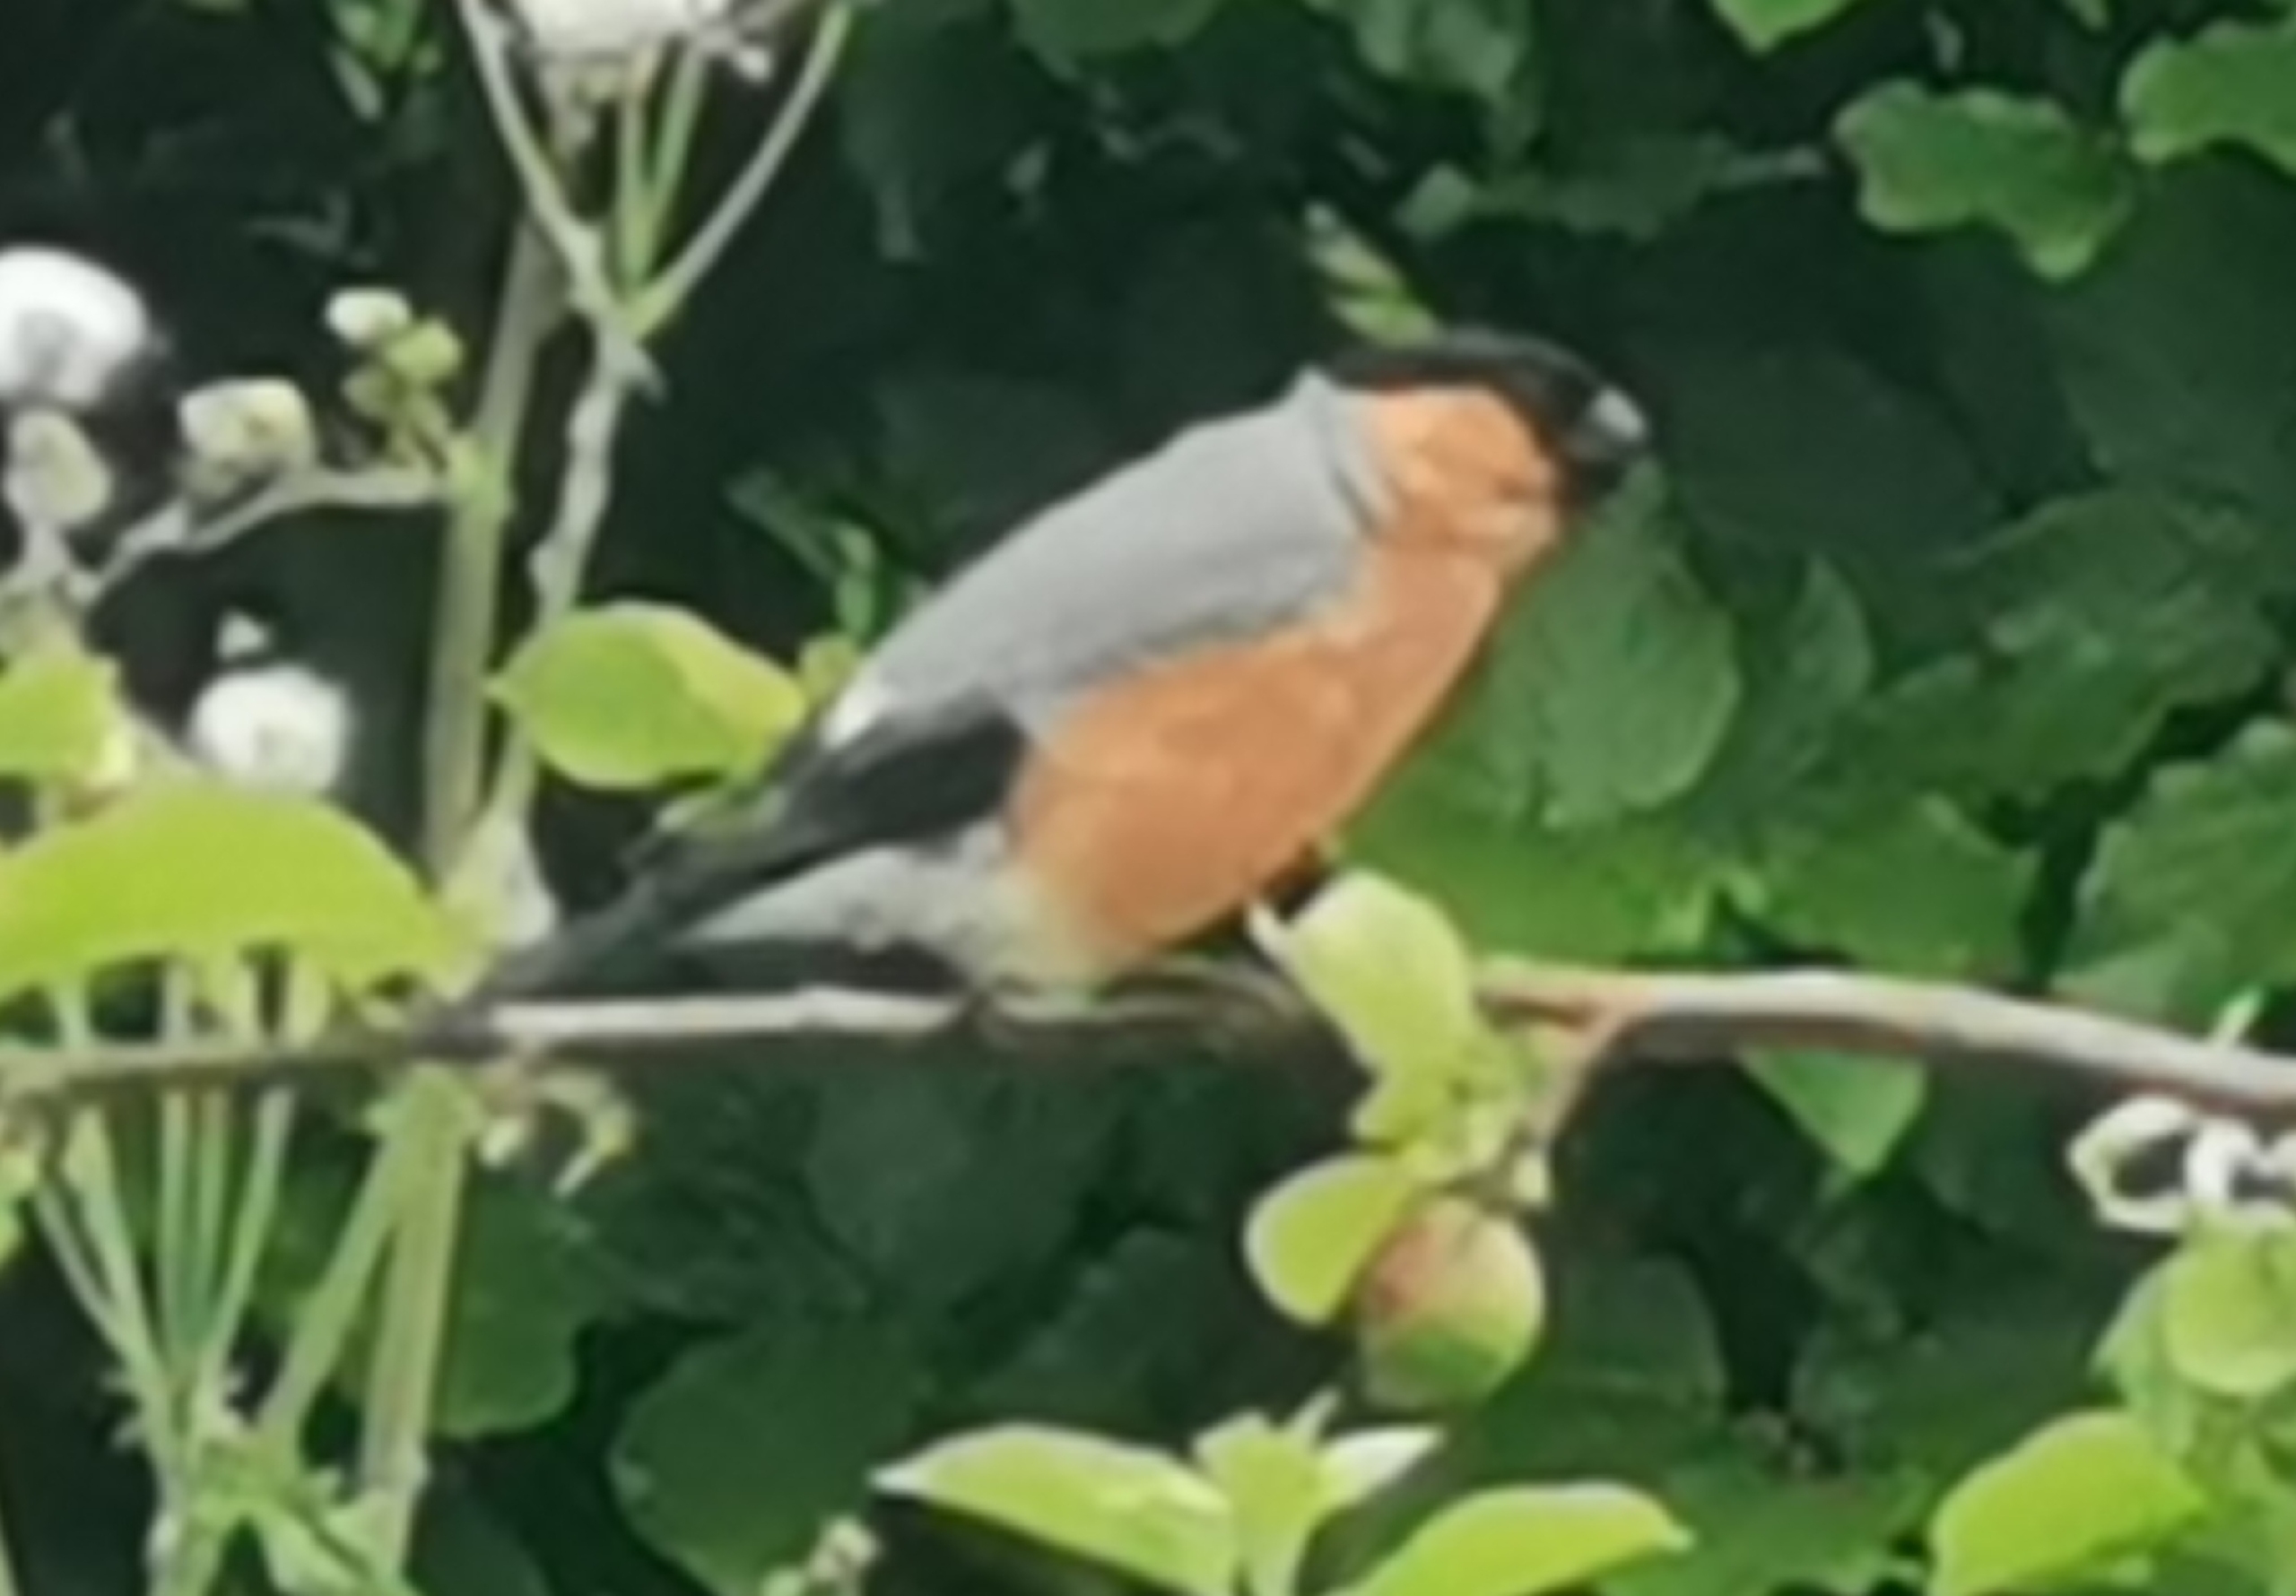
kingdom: Animalia
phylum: Chordata
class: Aves
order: Passeriformes
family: Fringillidae
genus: Pyrrhula
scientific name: Pyrrhula pyrrhula
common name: Dompap
